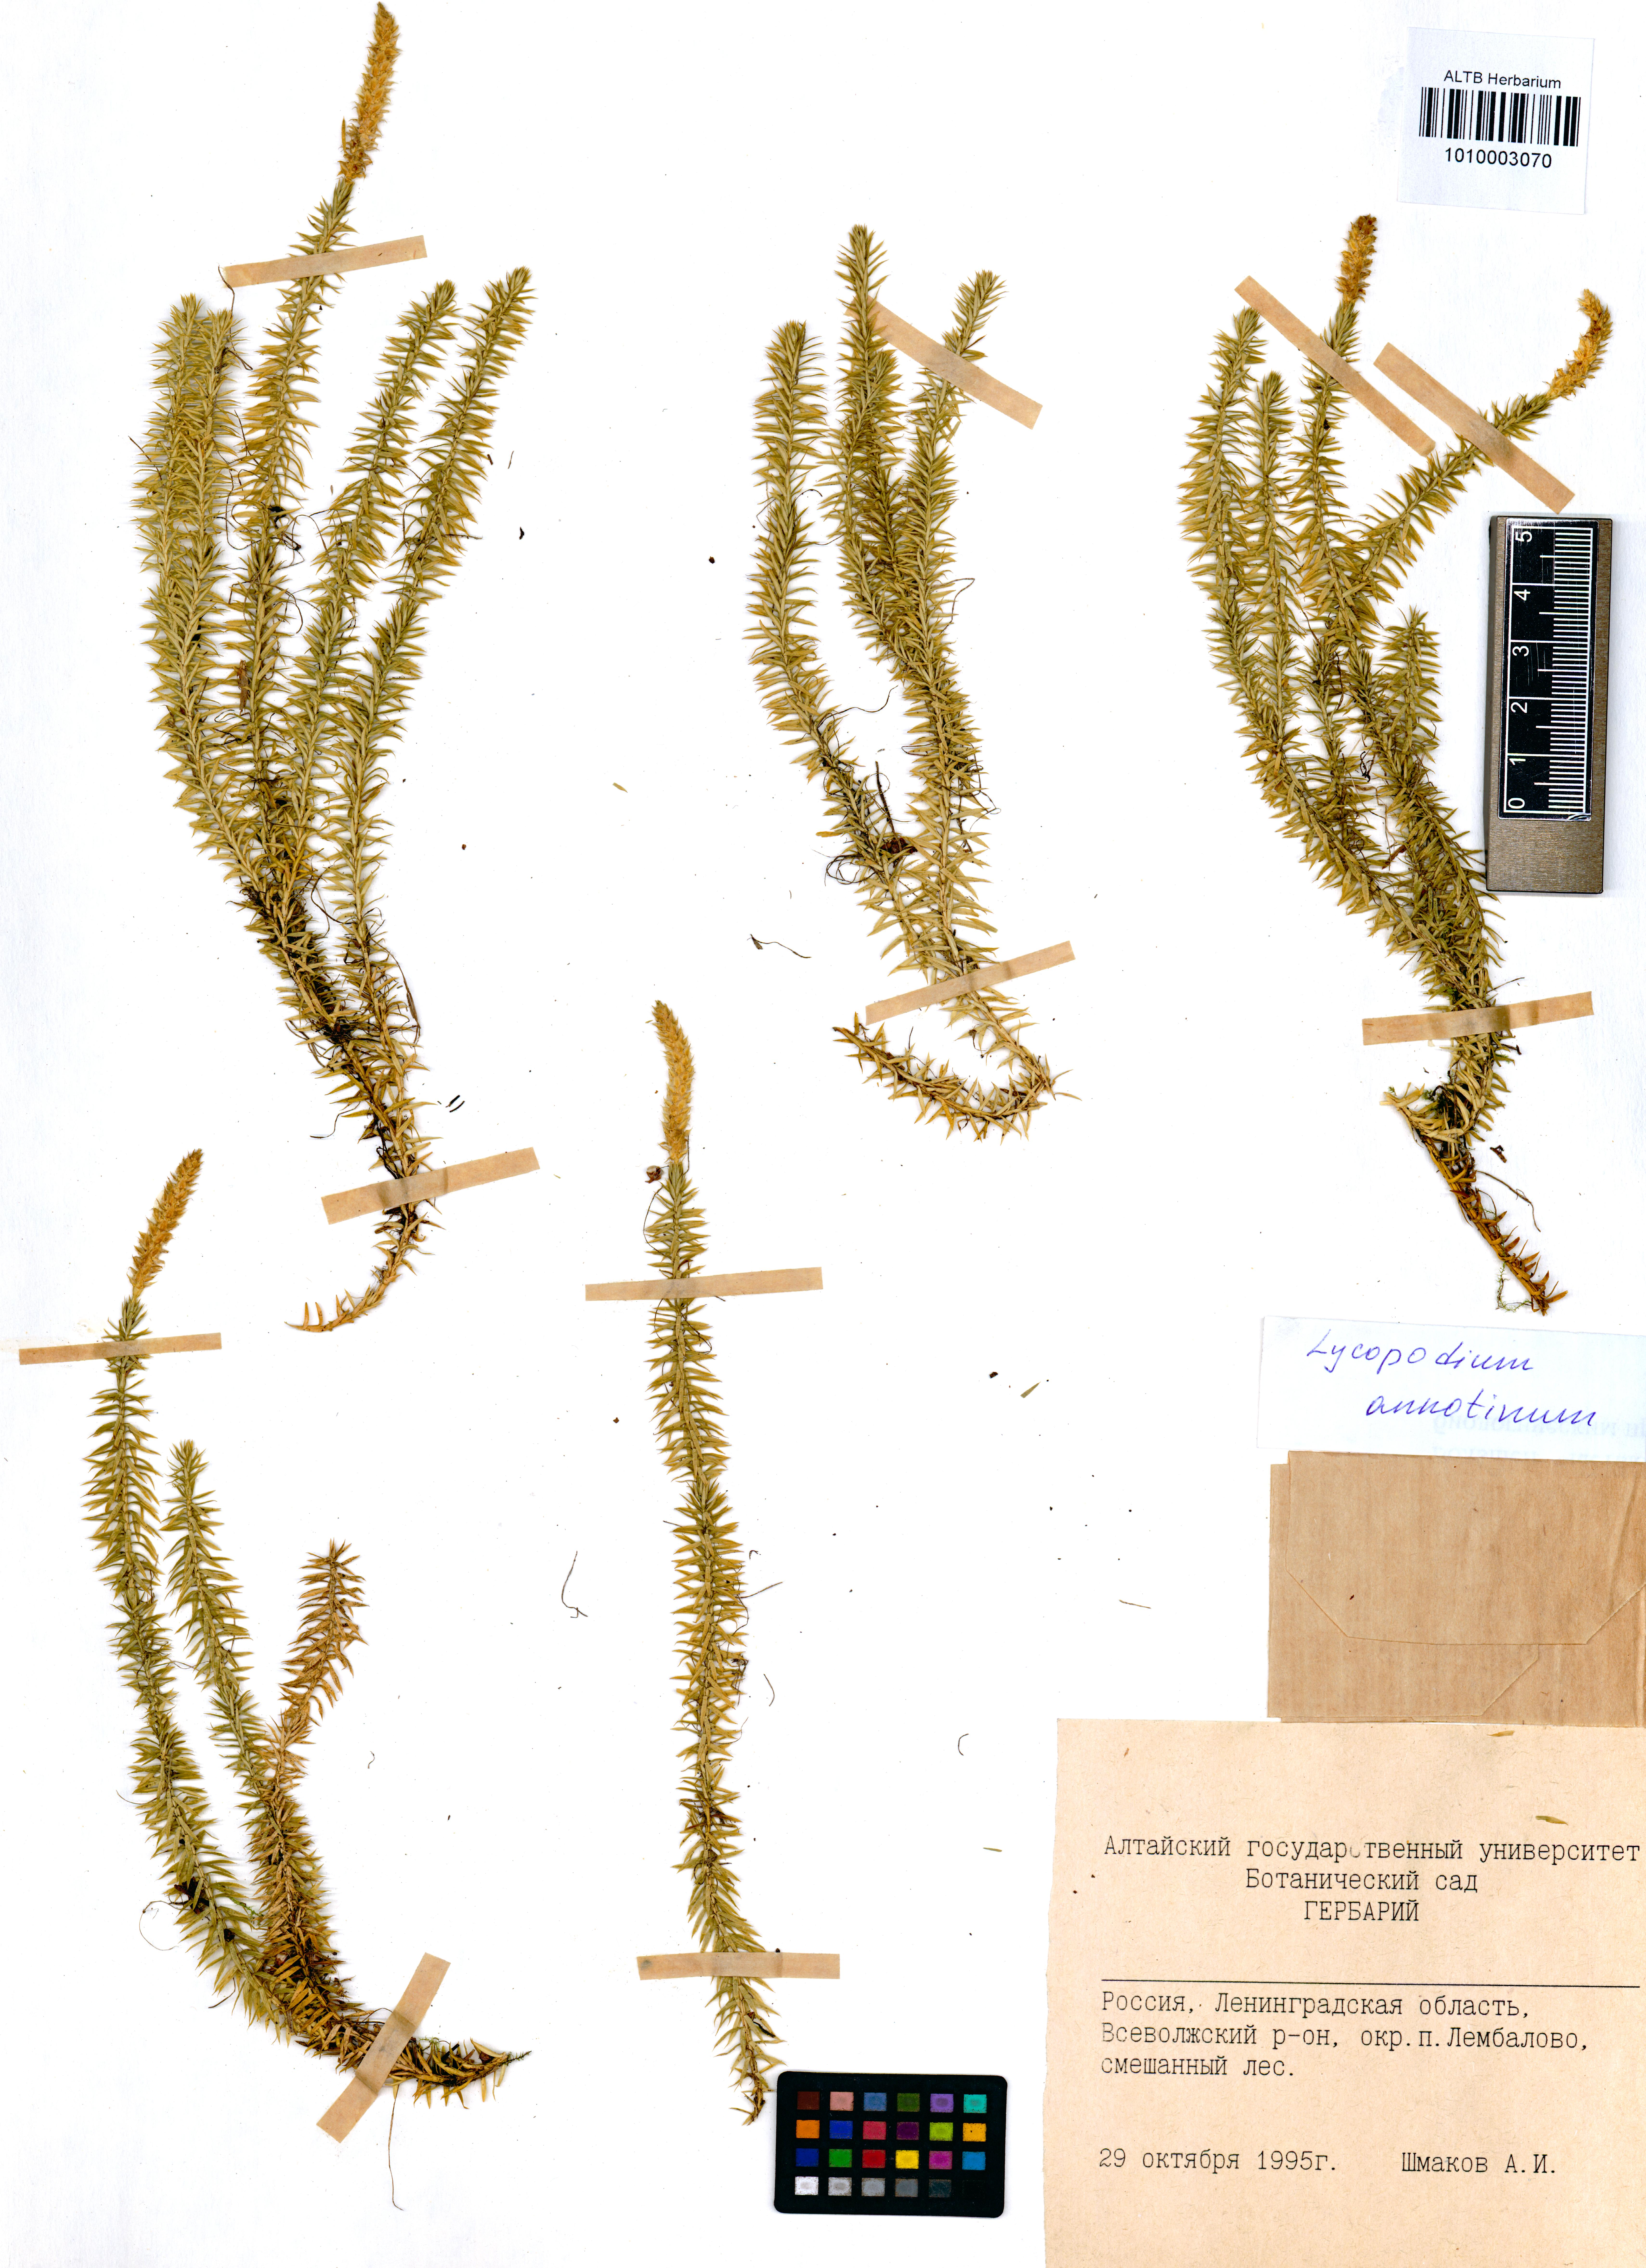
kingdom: Plantae
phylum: Tracheophyta
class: Lycopodiopsida
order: Lycopodiales
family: Lycopodiaceae
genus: Spinulum
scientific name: Spinulum annotinum
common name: Interrupted club-moss
